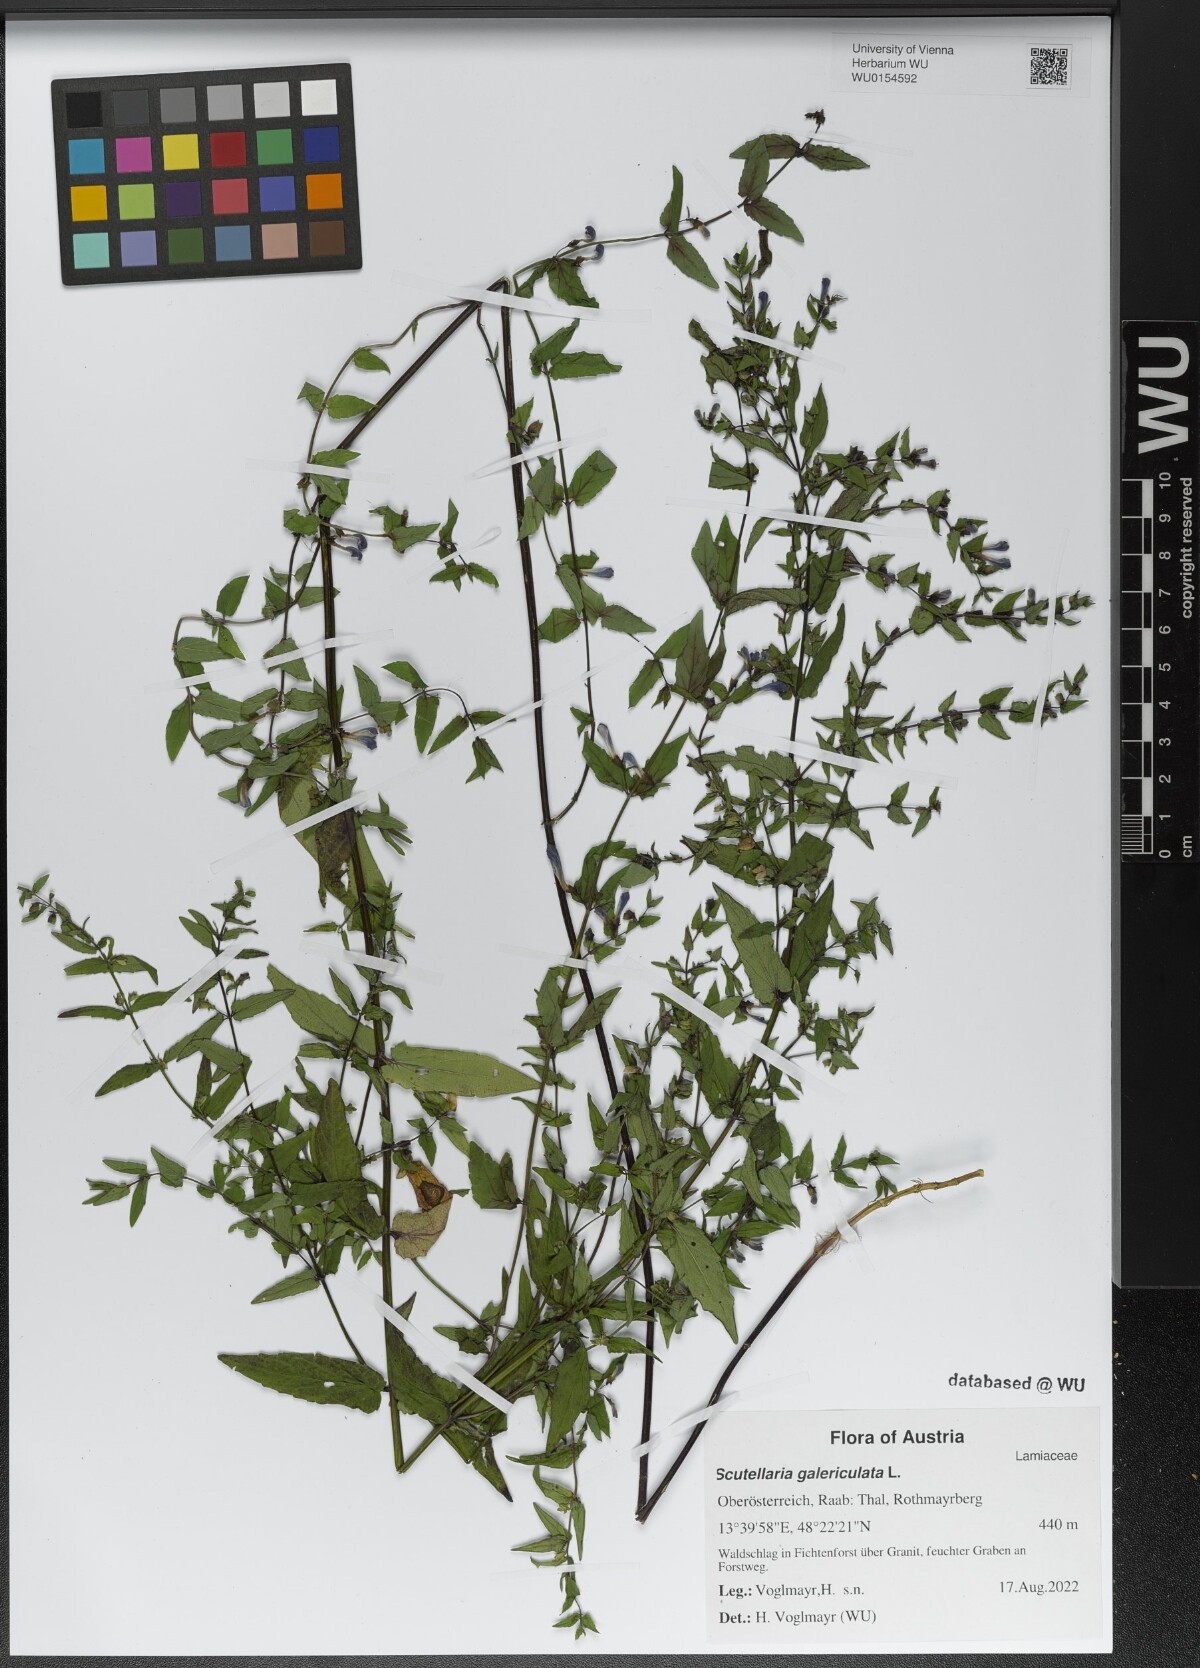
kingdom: Plantae
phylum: Tracheophyta
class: Magnoliopsida
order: Lamiales
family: Lamiaceae
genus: Scutellaria
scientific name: Scutellaria galericulata
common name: Skullcap
